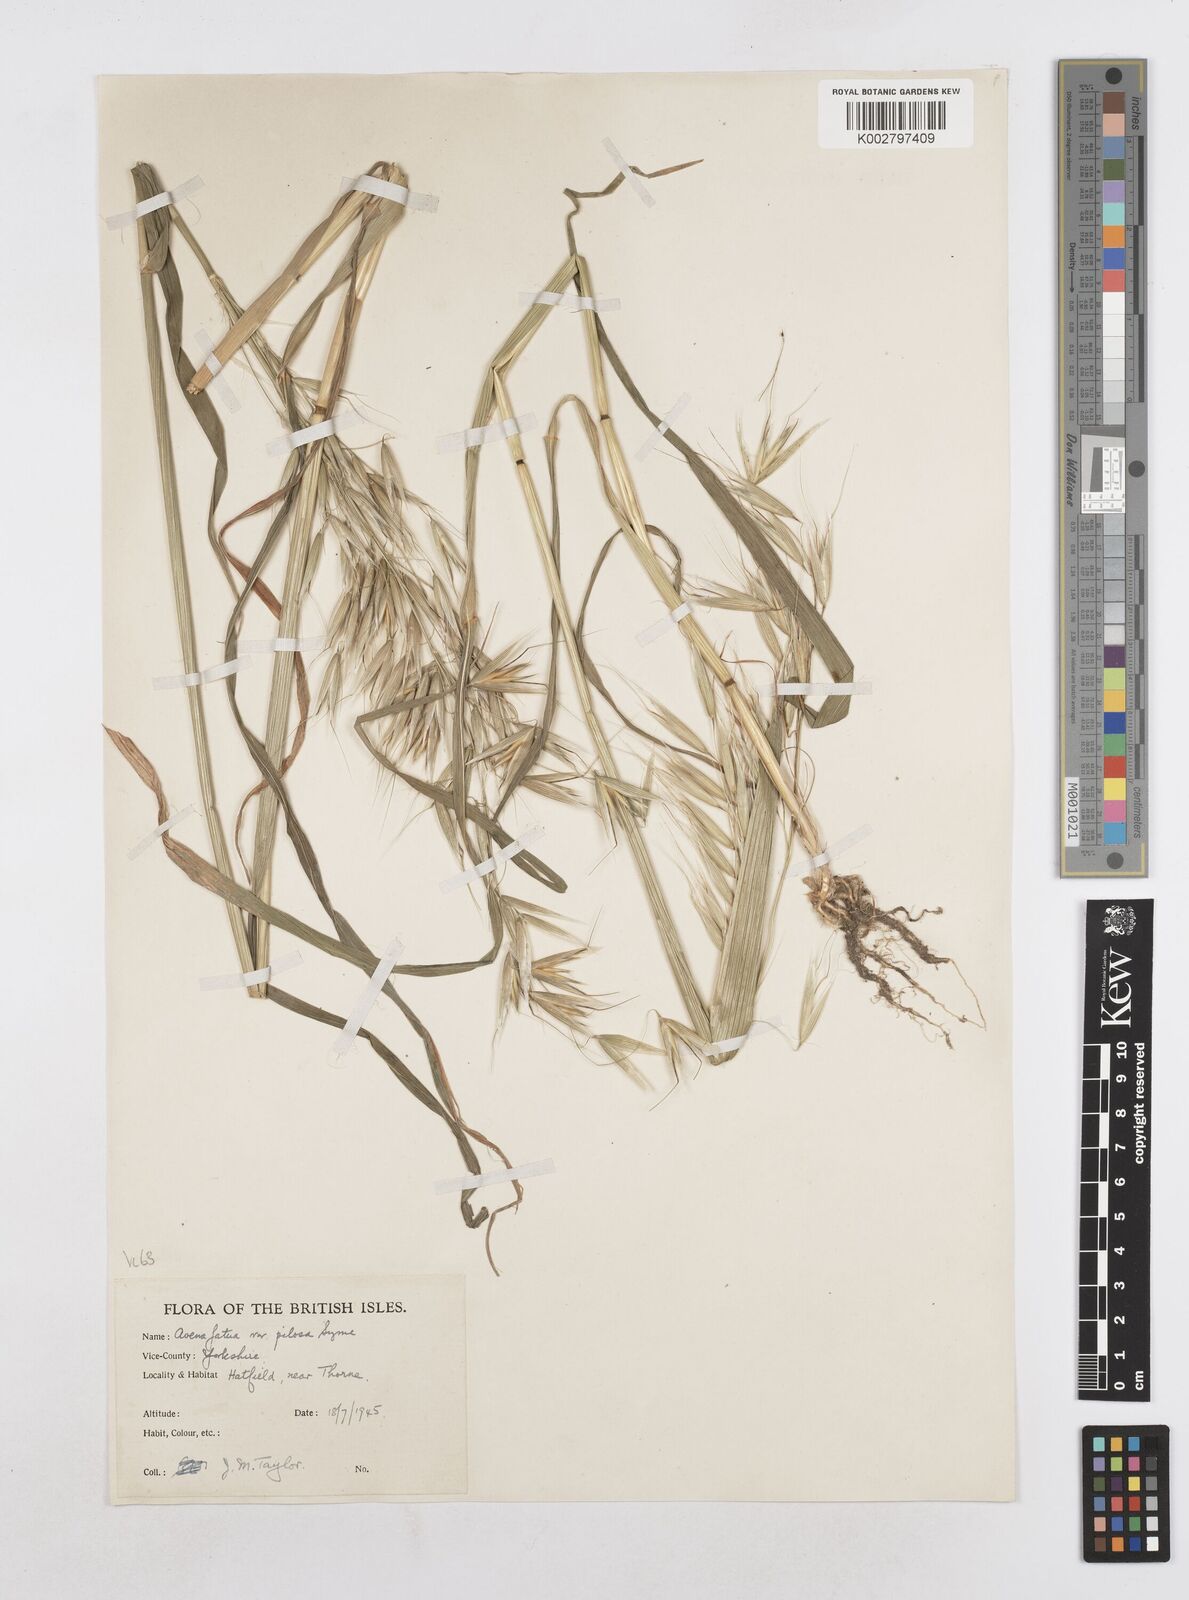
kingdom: Plantae
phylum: Tracheophyta
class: Liliopsida
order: Poales
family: Poaceae
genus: Avena
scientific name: Avena fatua
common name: Wild oat
